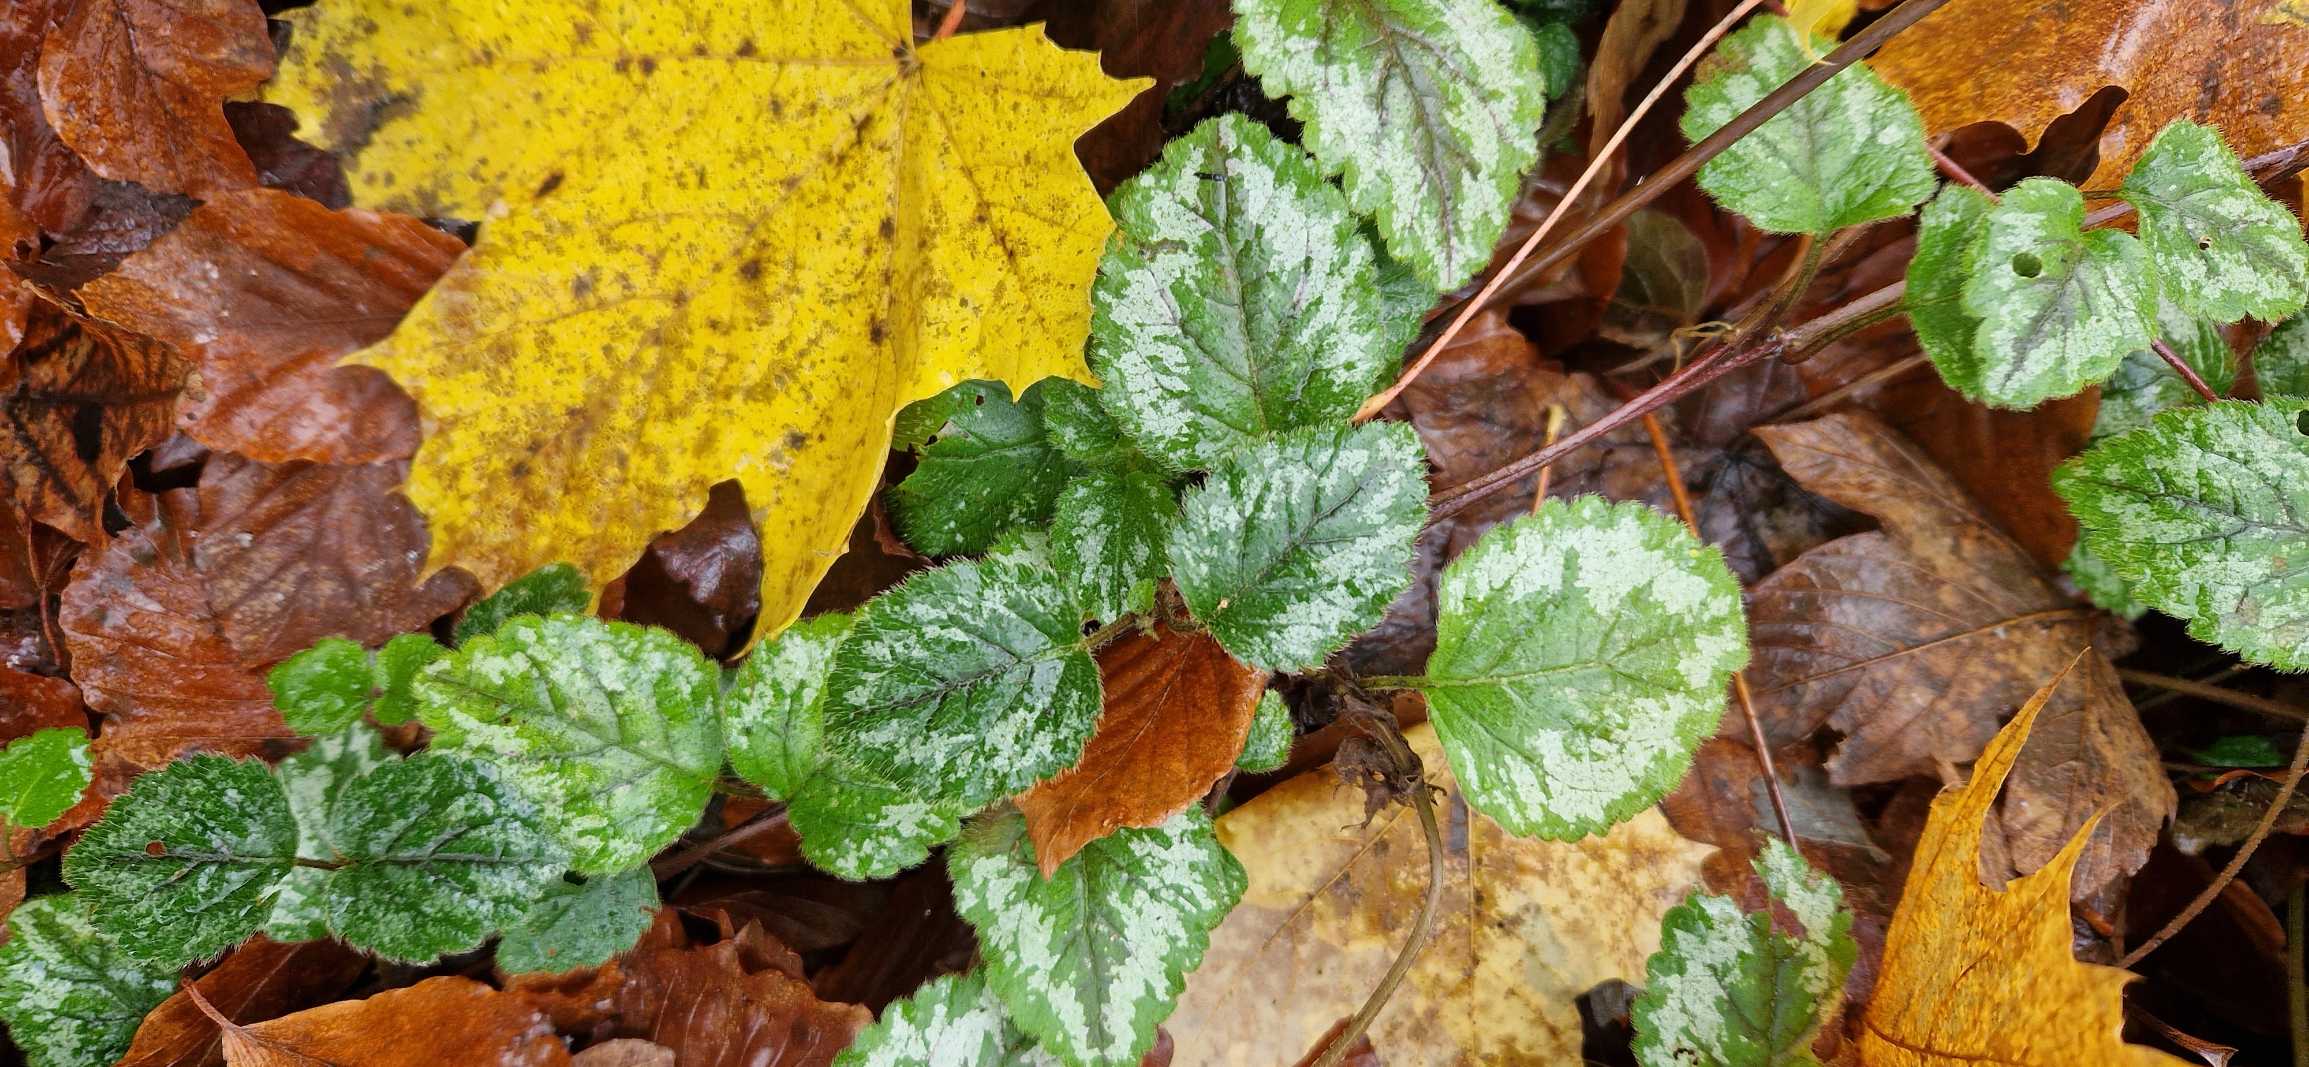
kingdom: Plantae
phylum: Tracheophyta
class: Magnoliopsida
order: Lamiales
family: Lamiaceae
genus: Lamium
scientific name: Lamium galeobdolon
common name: Have-guldnælde
